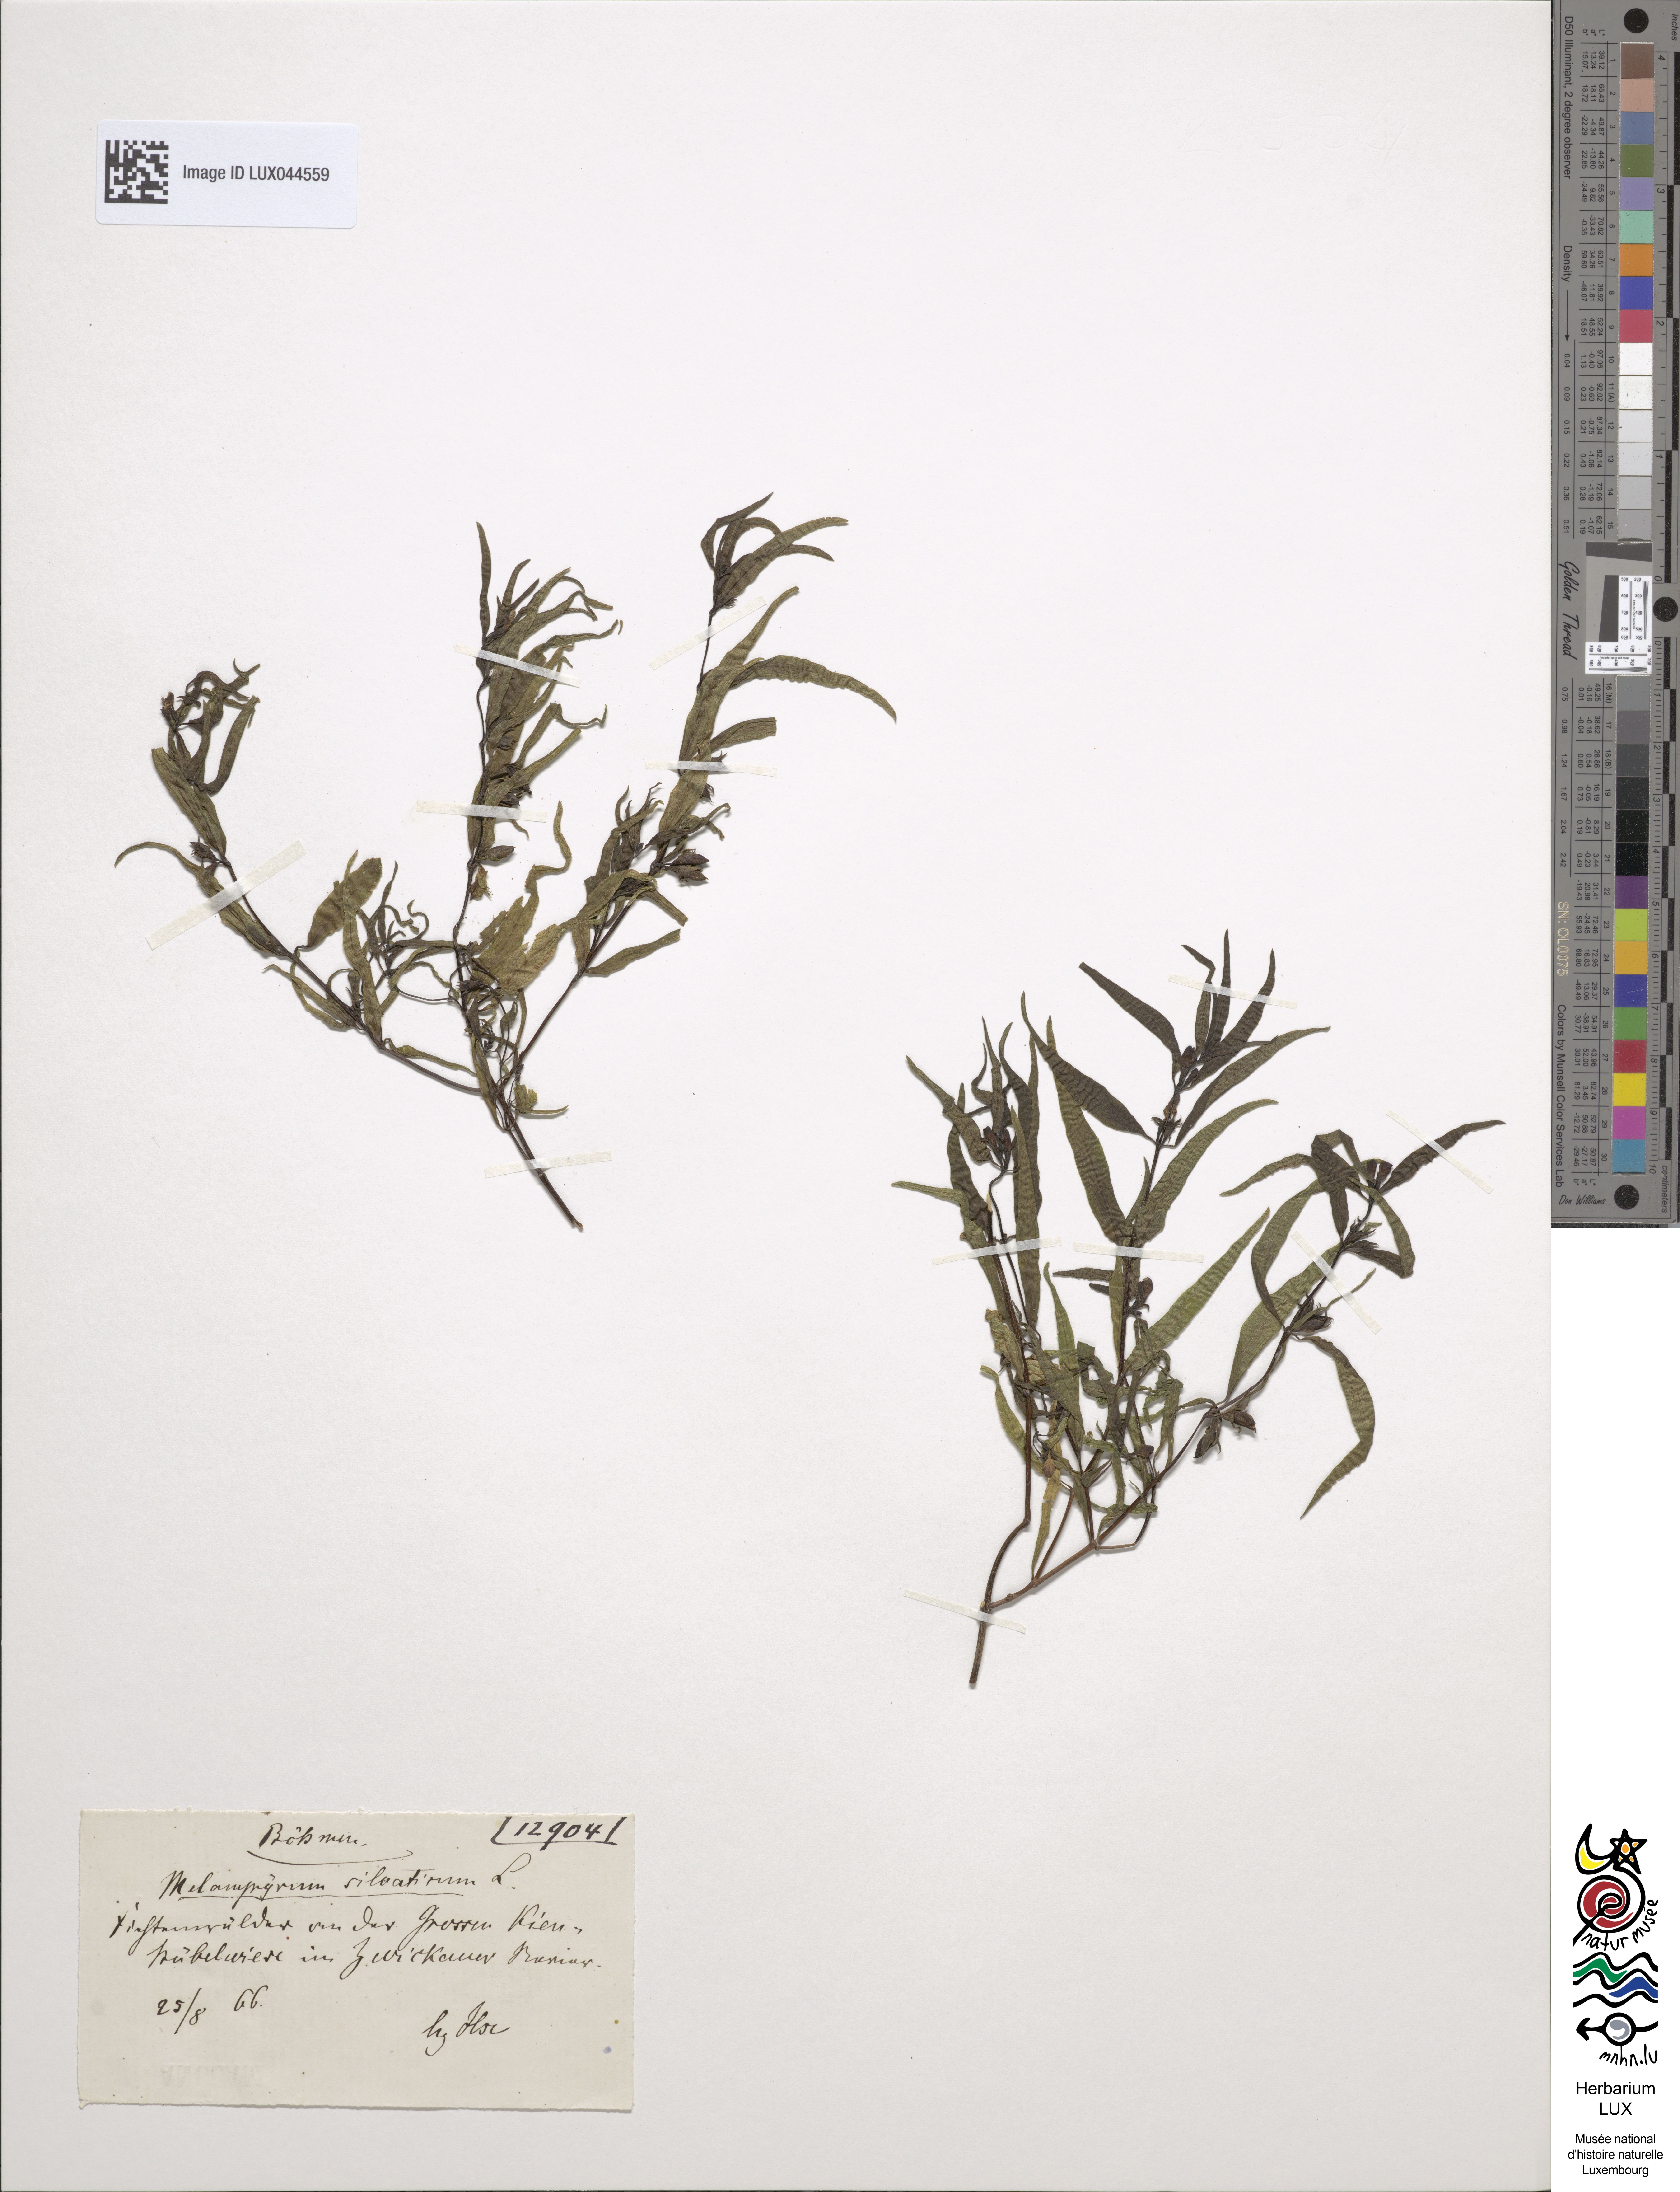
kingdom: Plantae
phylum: Tracheophyta
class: Magnoliopsida
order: Lamiales
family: Orobanchaceae
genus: Melampyrum
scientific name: Melampyrum sylvaticum
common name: Small cow-wheat
